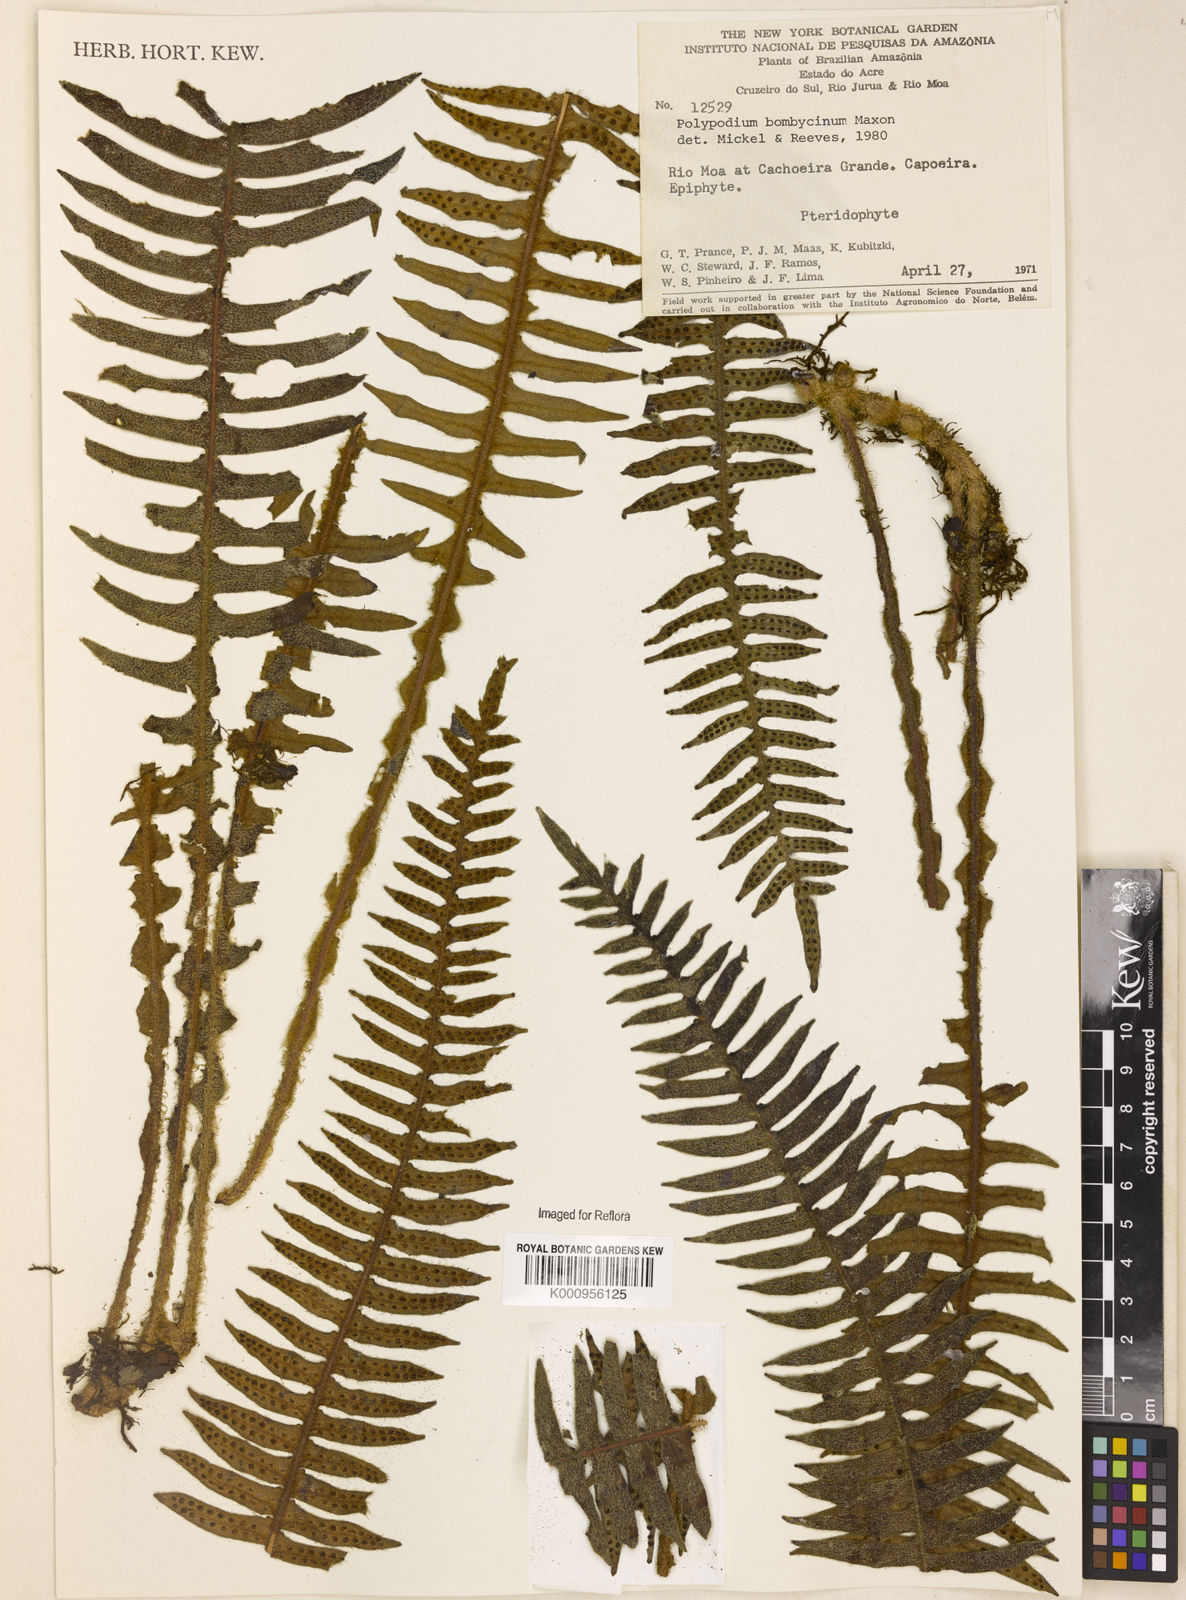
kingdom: Plantae
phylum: Tracheophyta
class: Polypodiopsida
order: Polypodiales
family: Polypodiaceae
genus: Pleopeltis
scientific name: Pleopeltis bombycina
